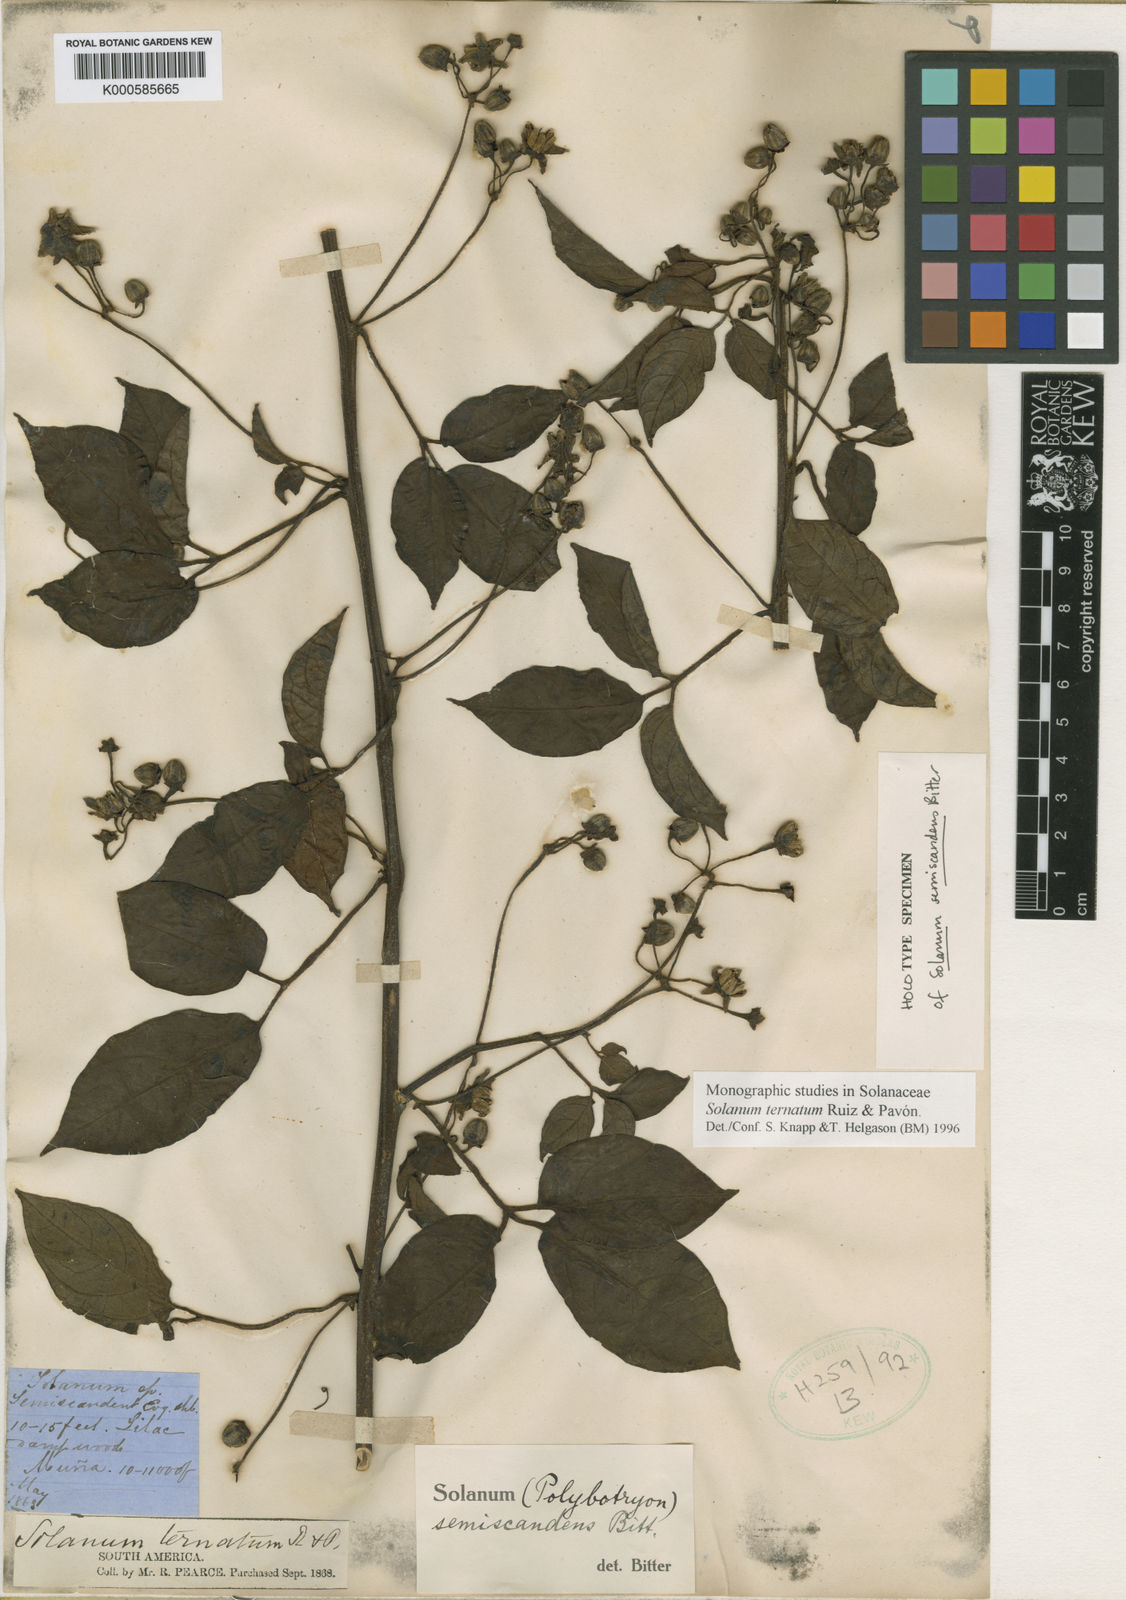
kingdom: Plantae
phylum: Tracheophyta
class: Magnoliopsida
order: Solanales
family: Solanaceae
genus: Solanum
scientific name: Solanum ternatum
